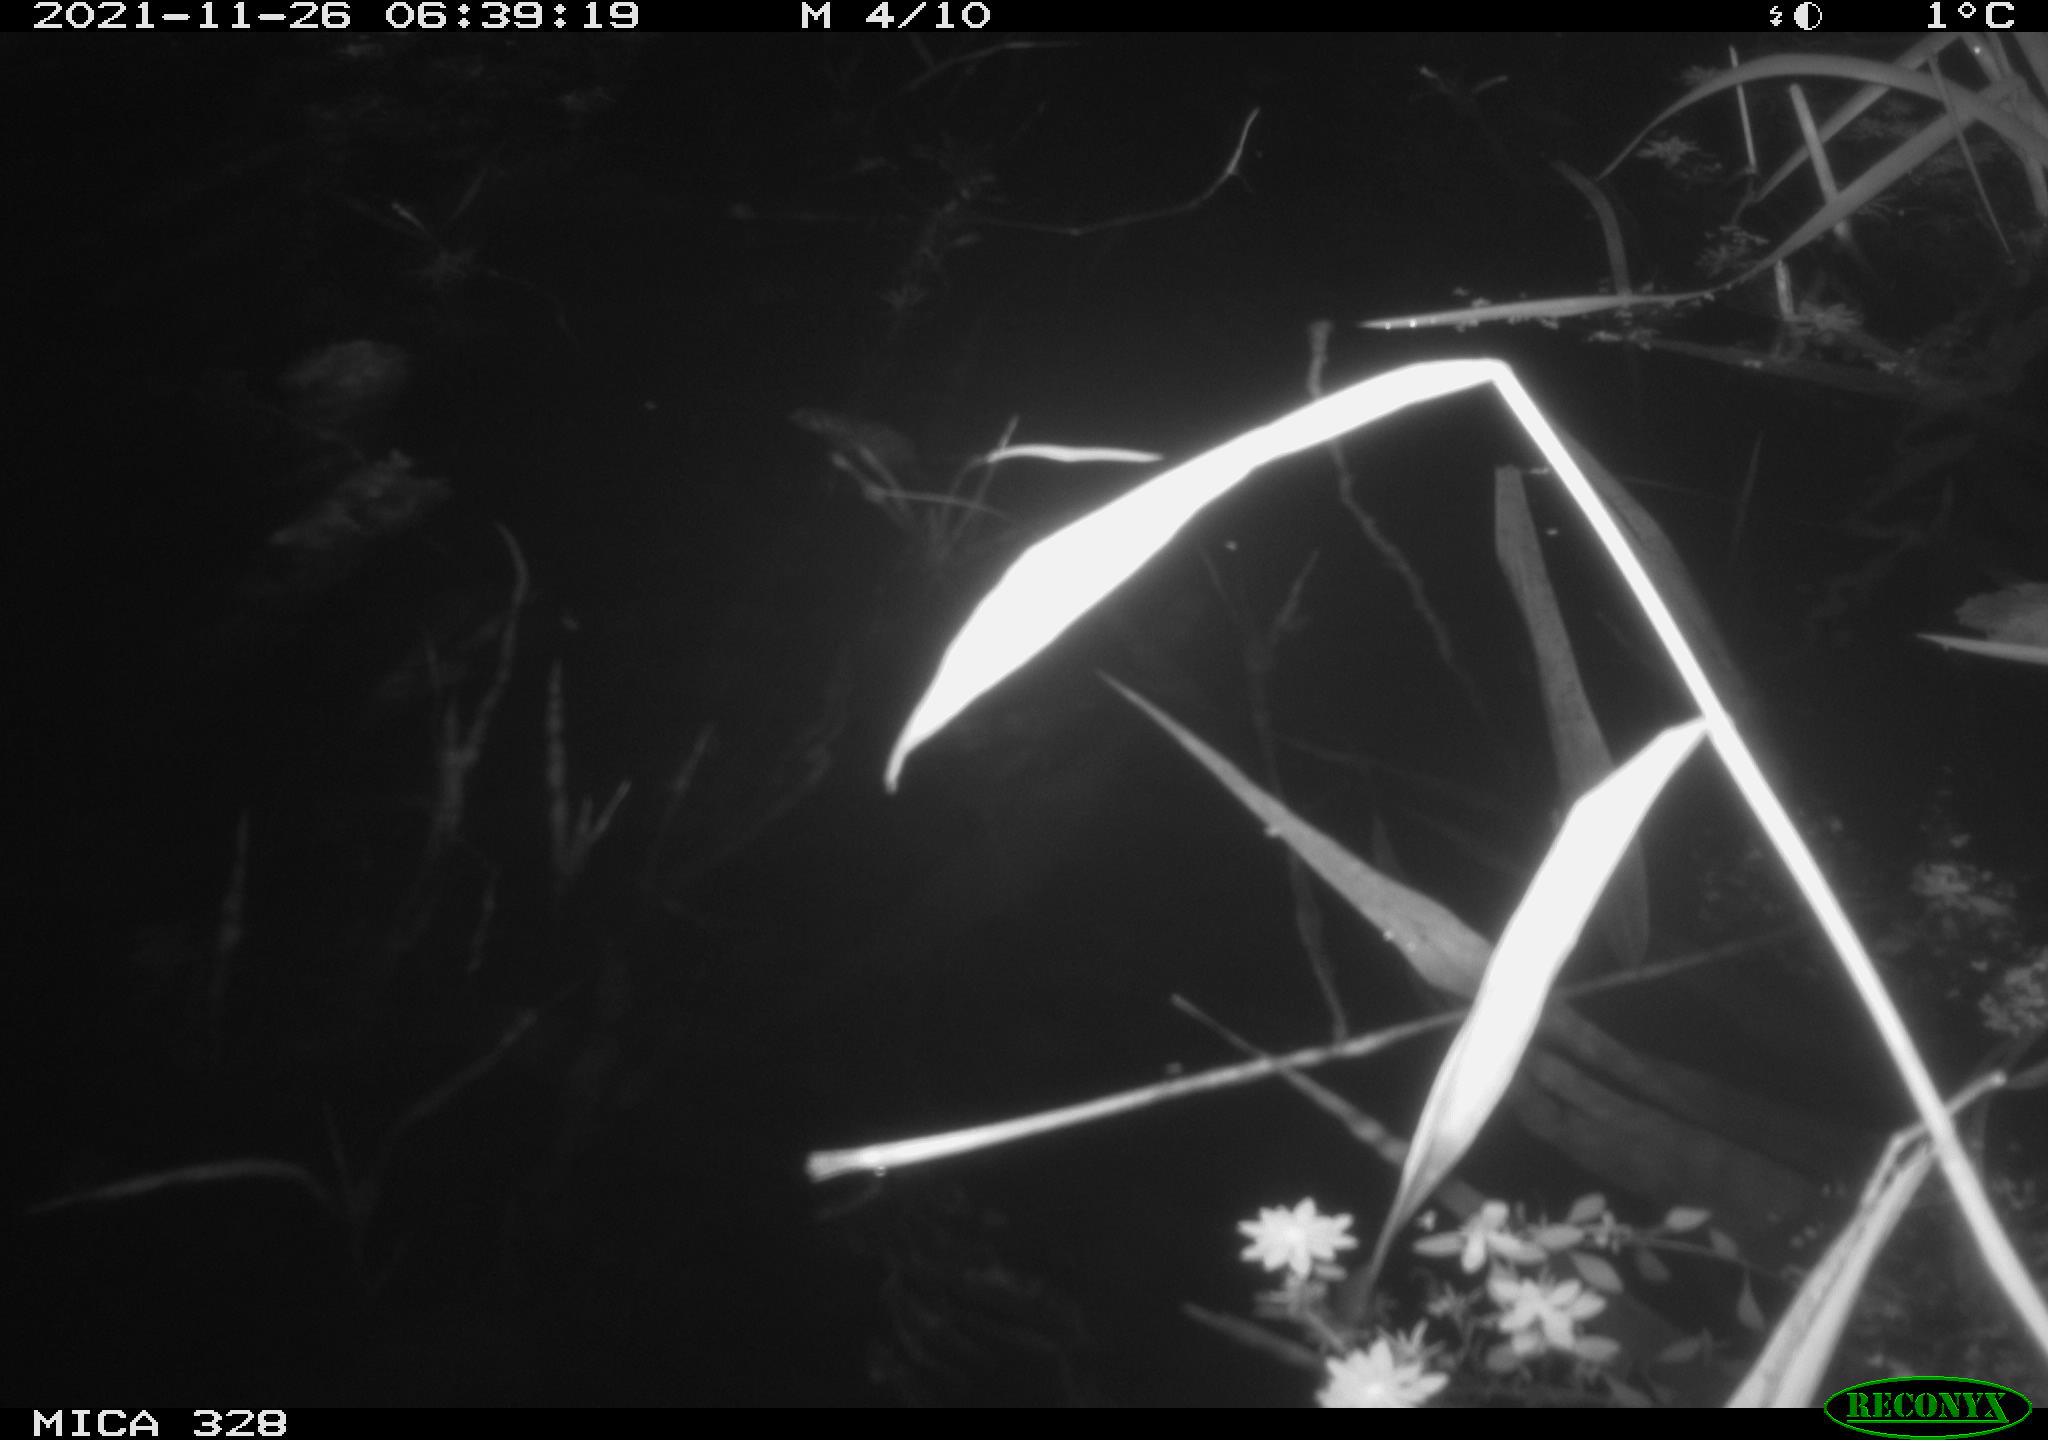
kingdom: Animalia
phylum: Chordata
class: Mammalia
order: Rodentia
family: Cricetidae
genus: Ondatra
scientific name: Ondatra zibethicus
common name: Muskrat
